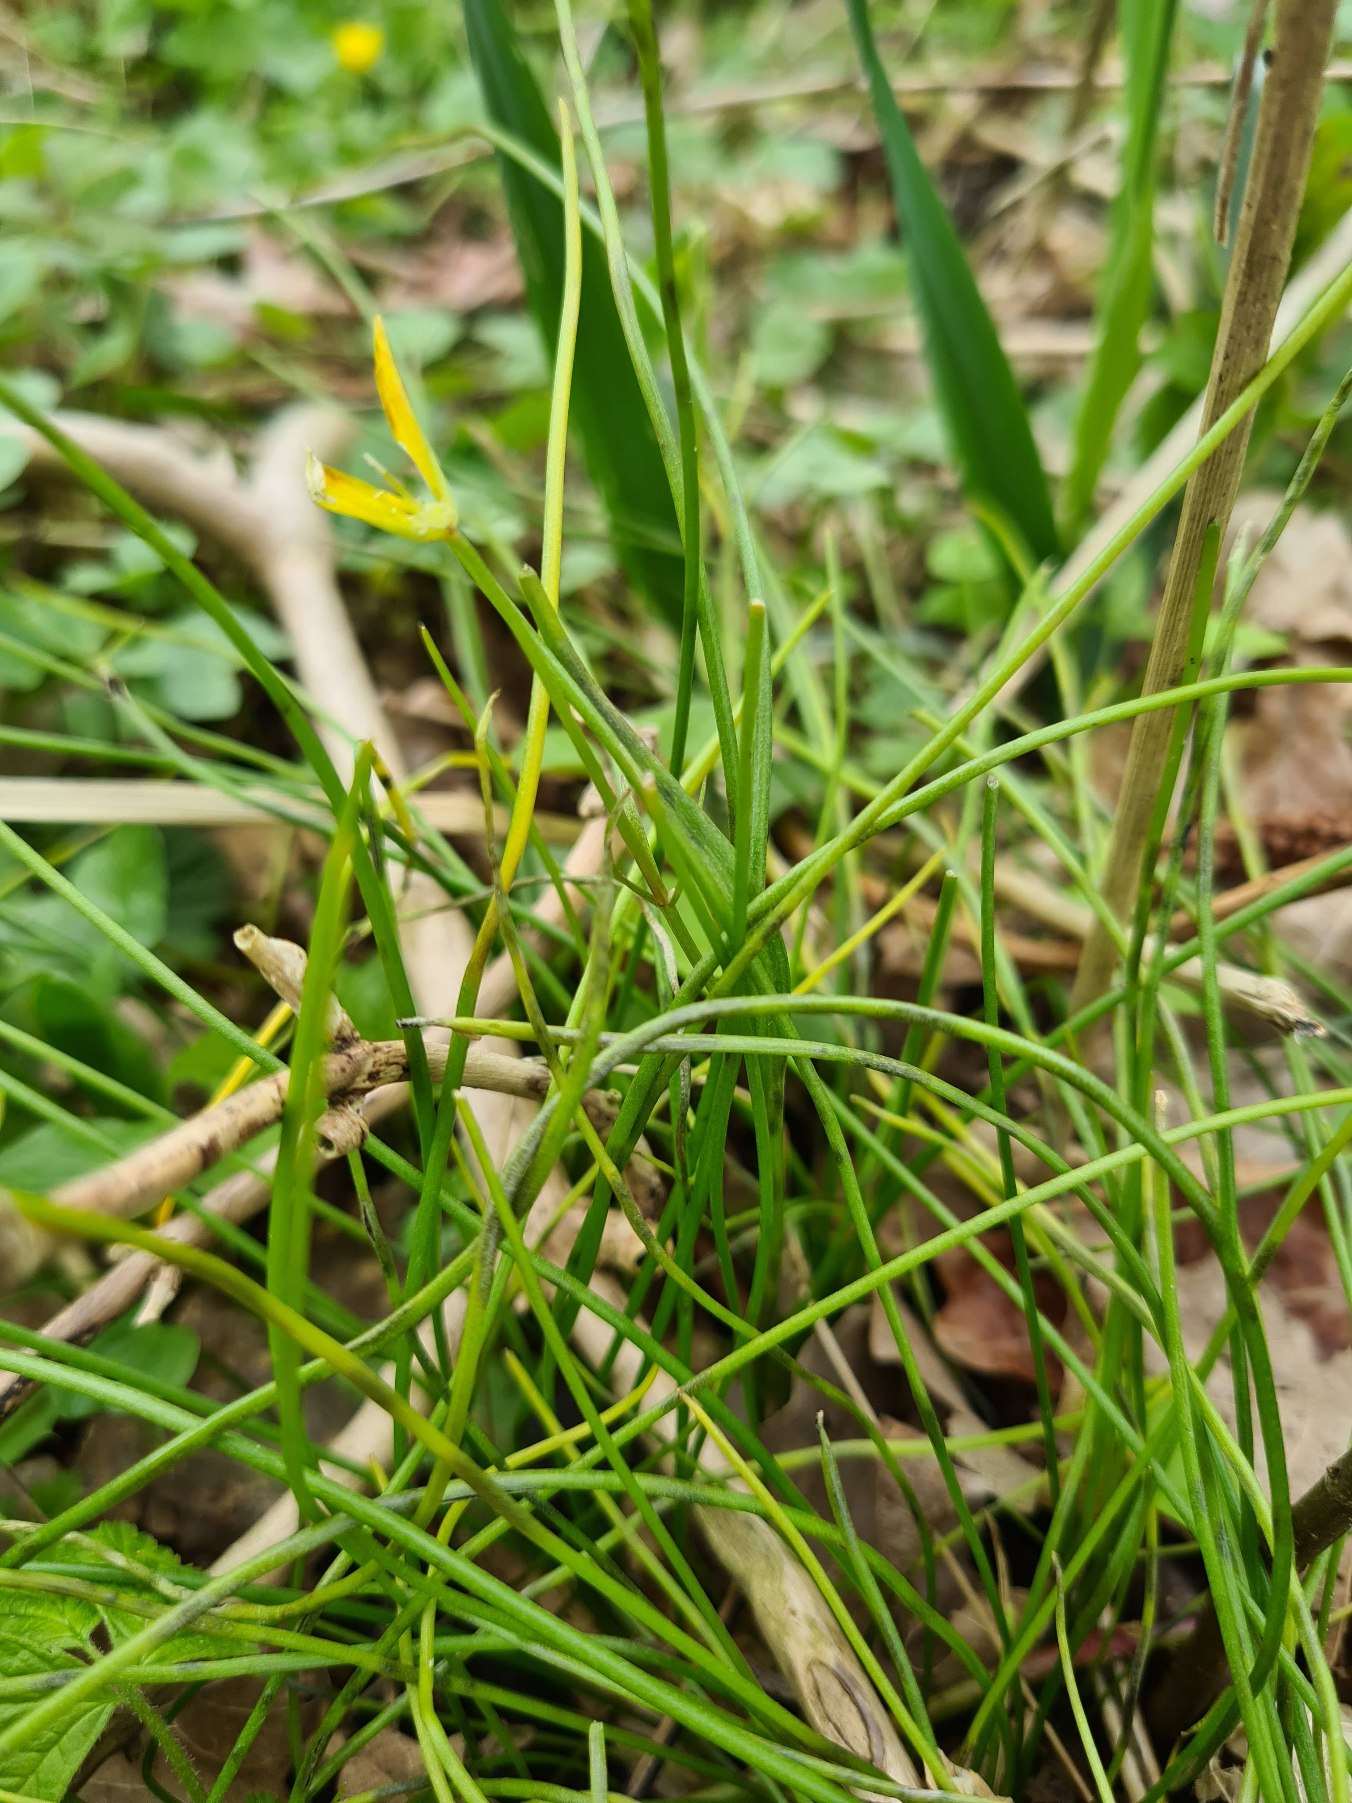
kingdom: Plantae
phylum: Tracheophyta
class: Liliopsida
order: Liliales
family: Liliaceae
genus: Gagea
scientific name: Gagea spathacea
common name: Hylster-guldstjerne
